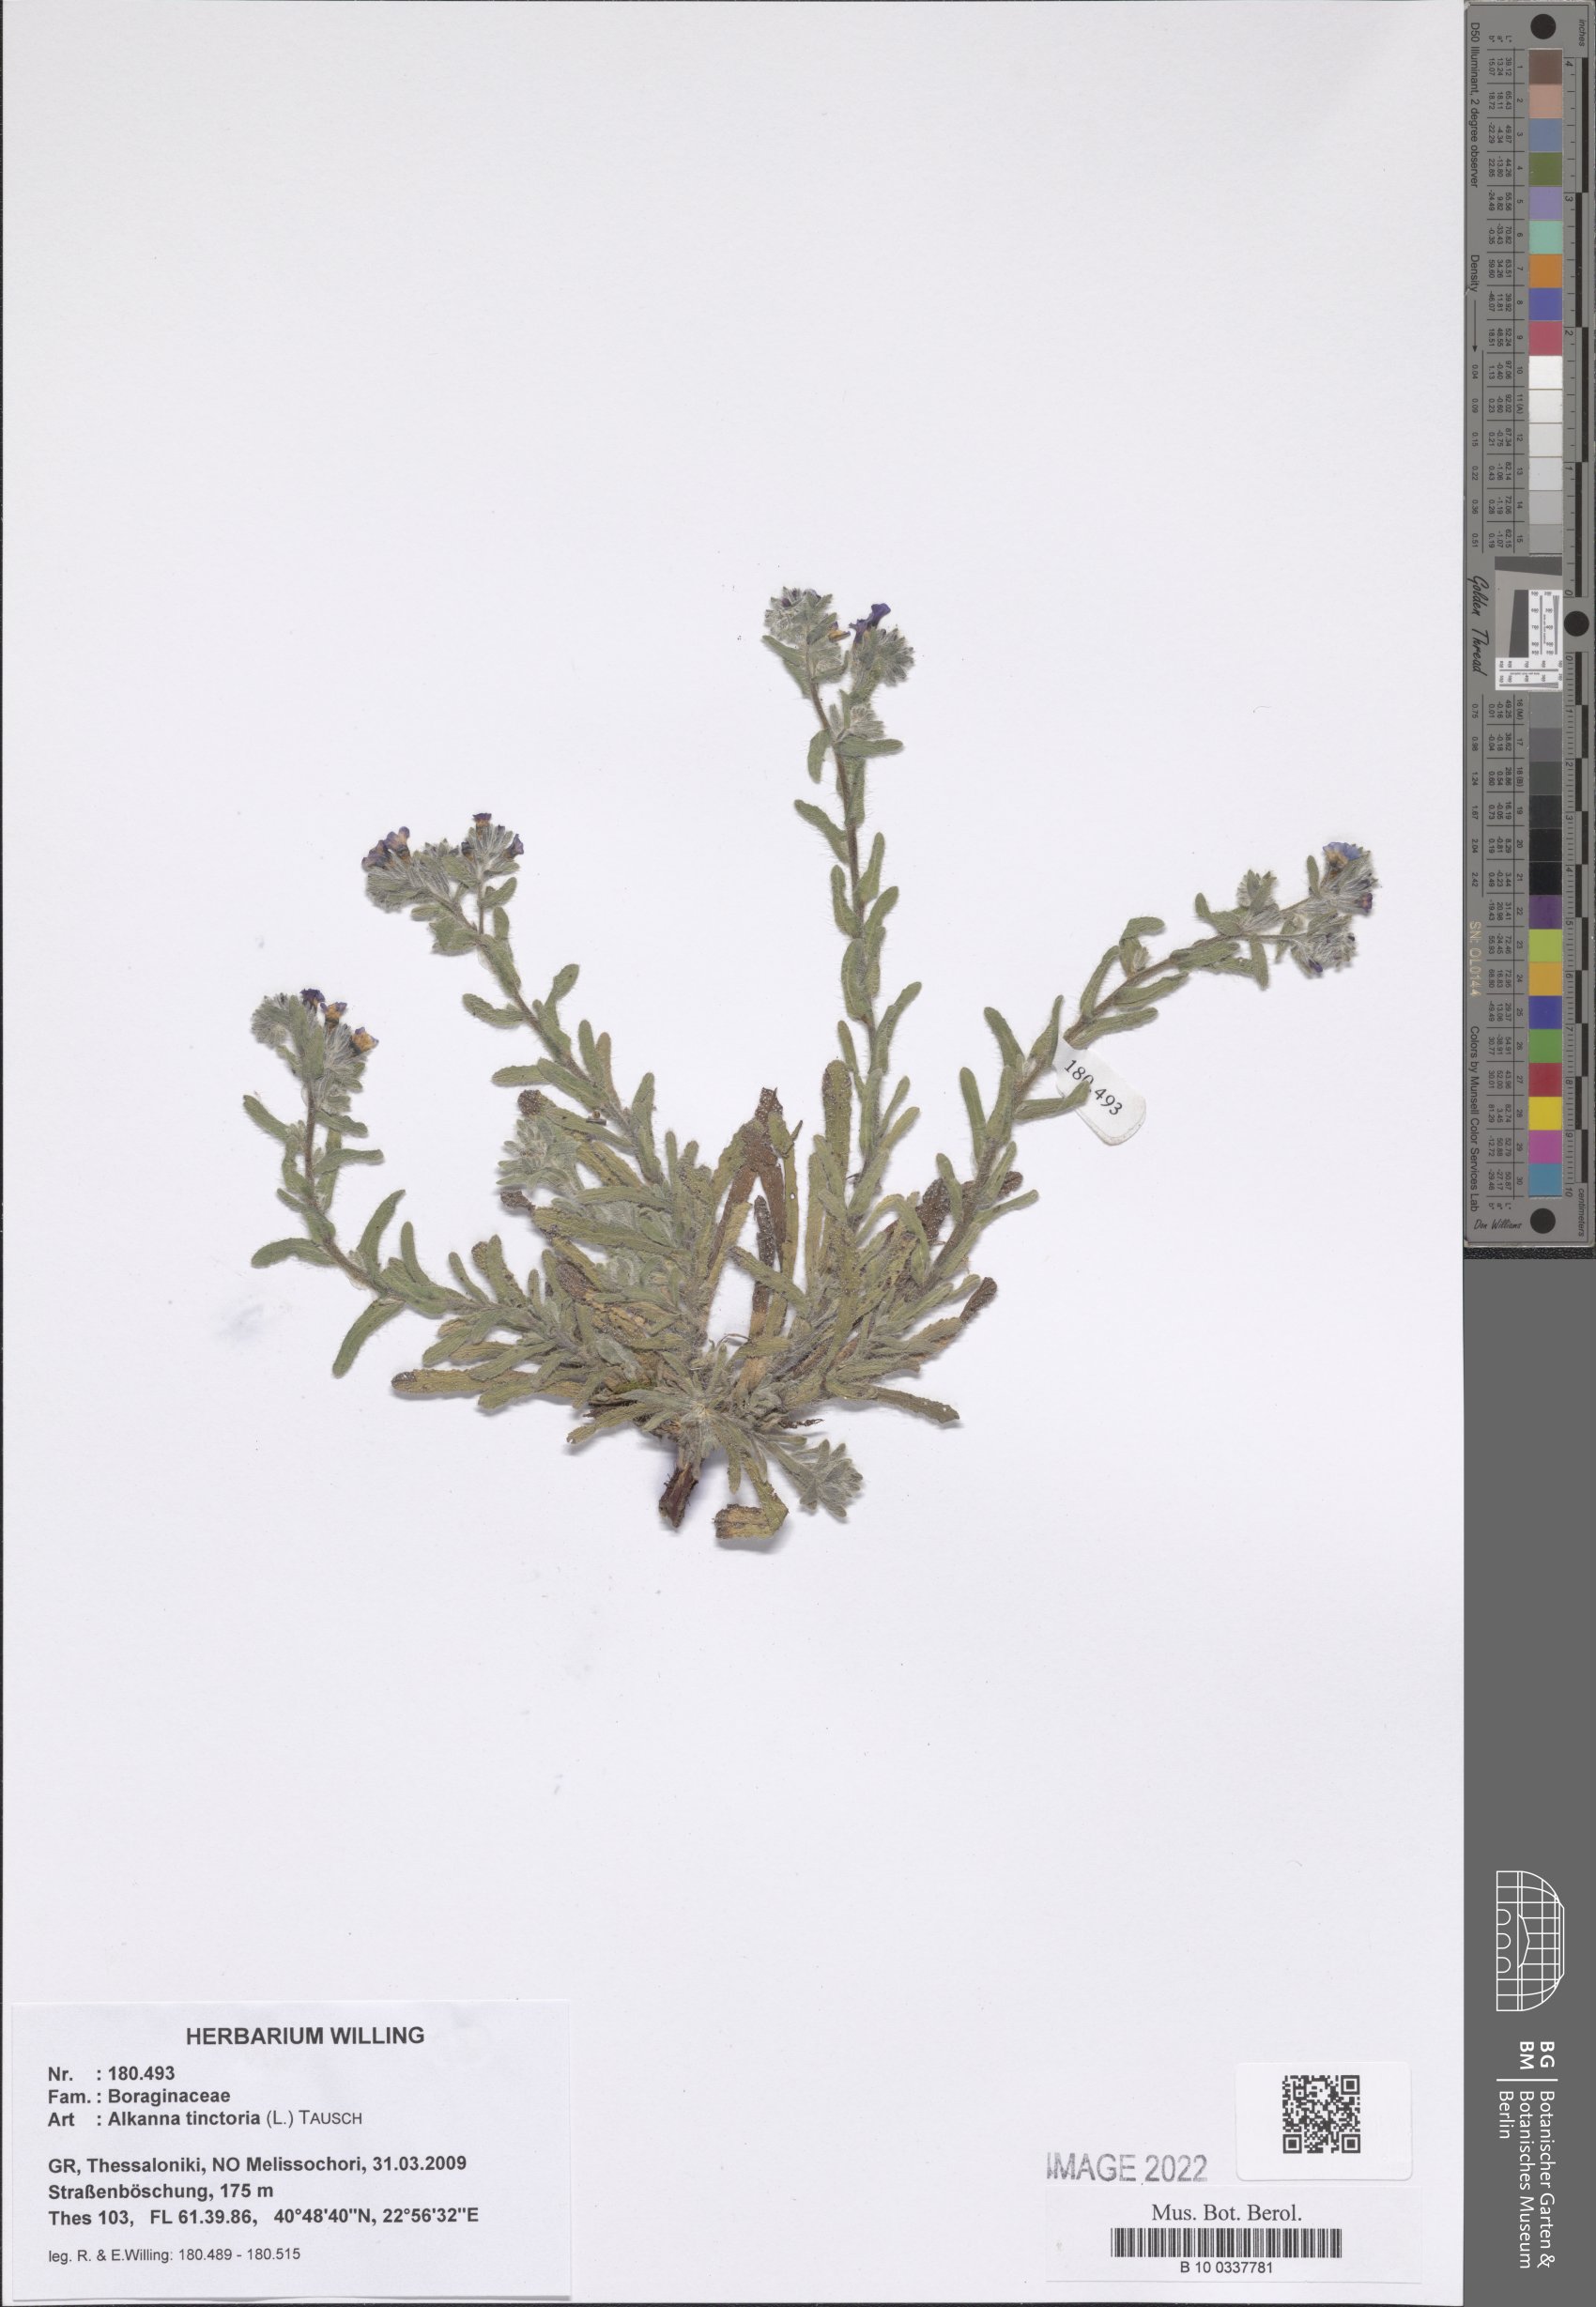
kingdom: Plantae
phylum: Tracheophyta
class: Magnoliopsida
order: Boraginales
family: Boraginaceae
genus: Alkanna
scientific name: Alkanna tinctoria
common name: Dyer's-alkanet
